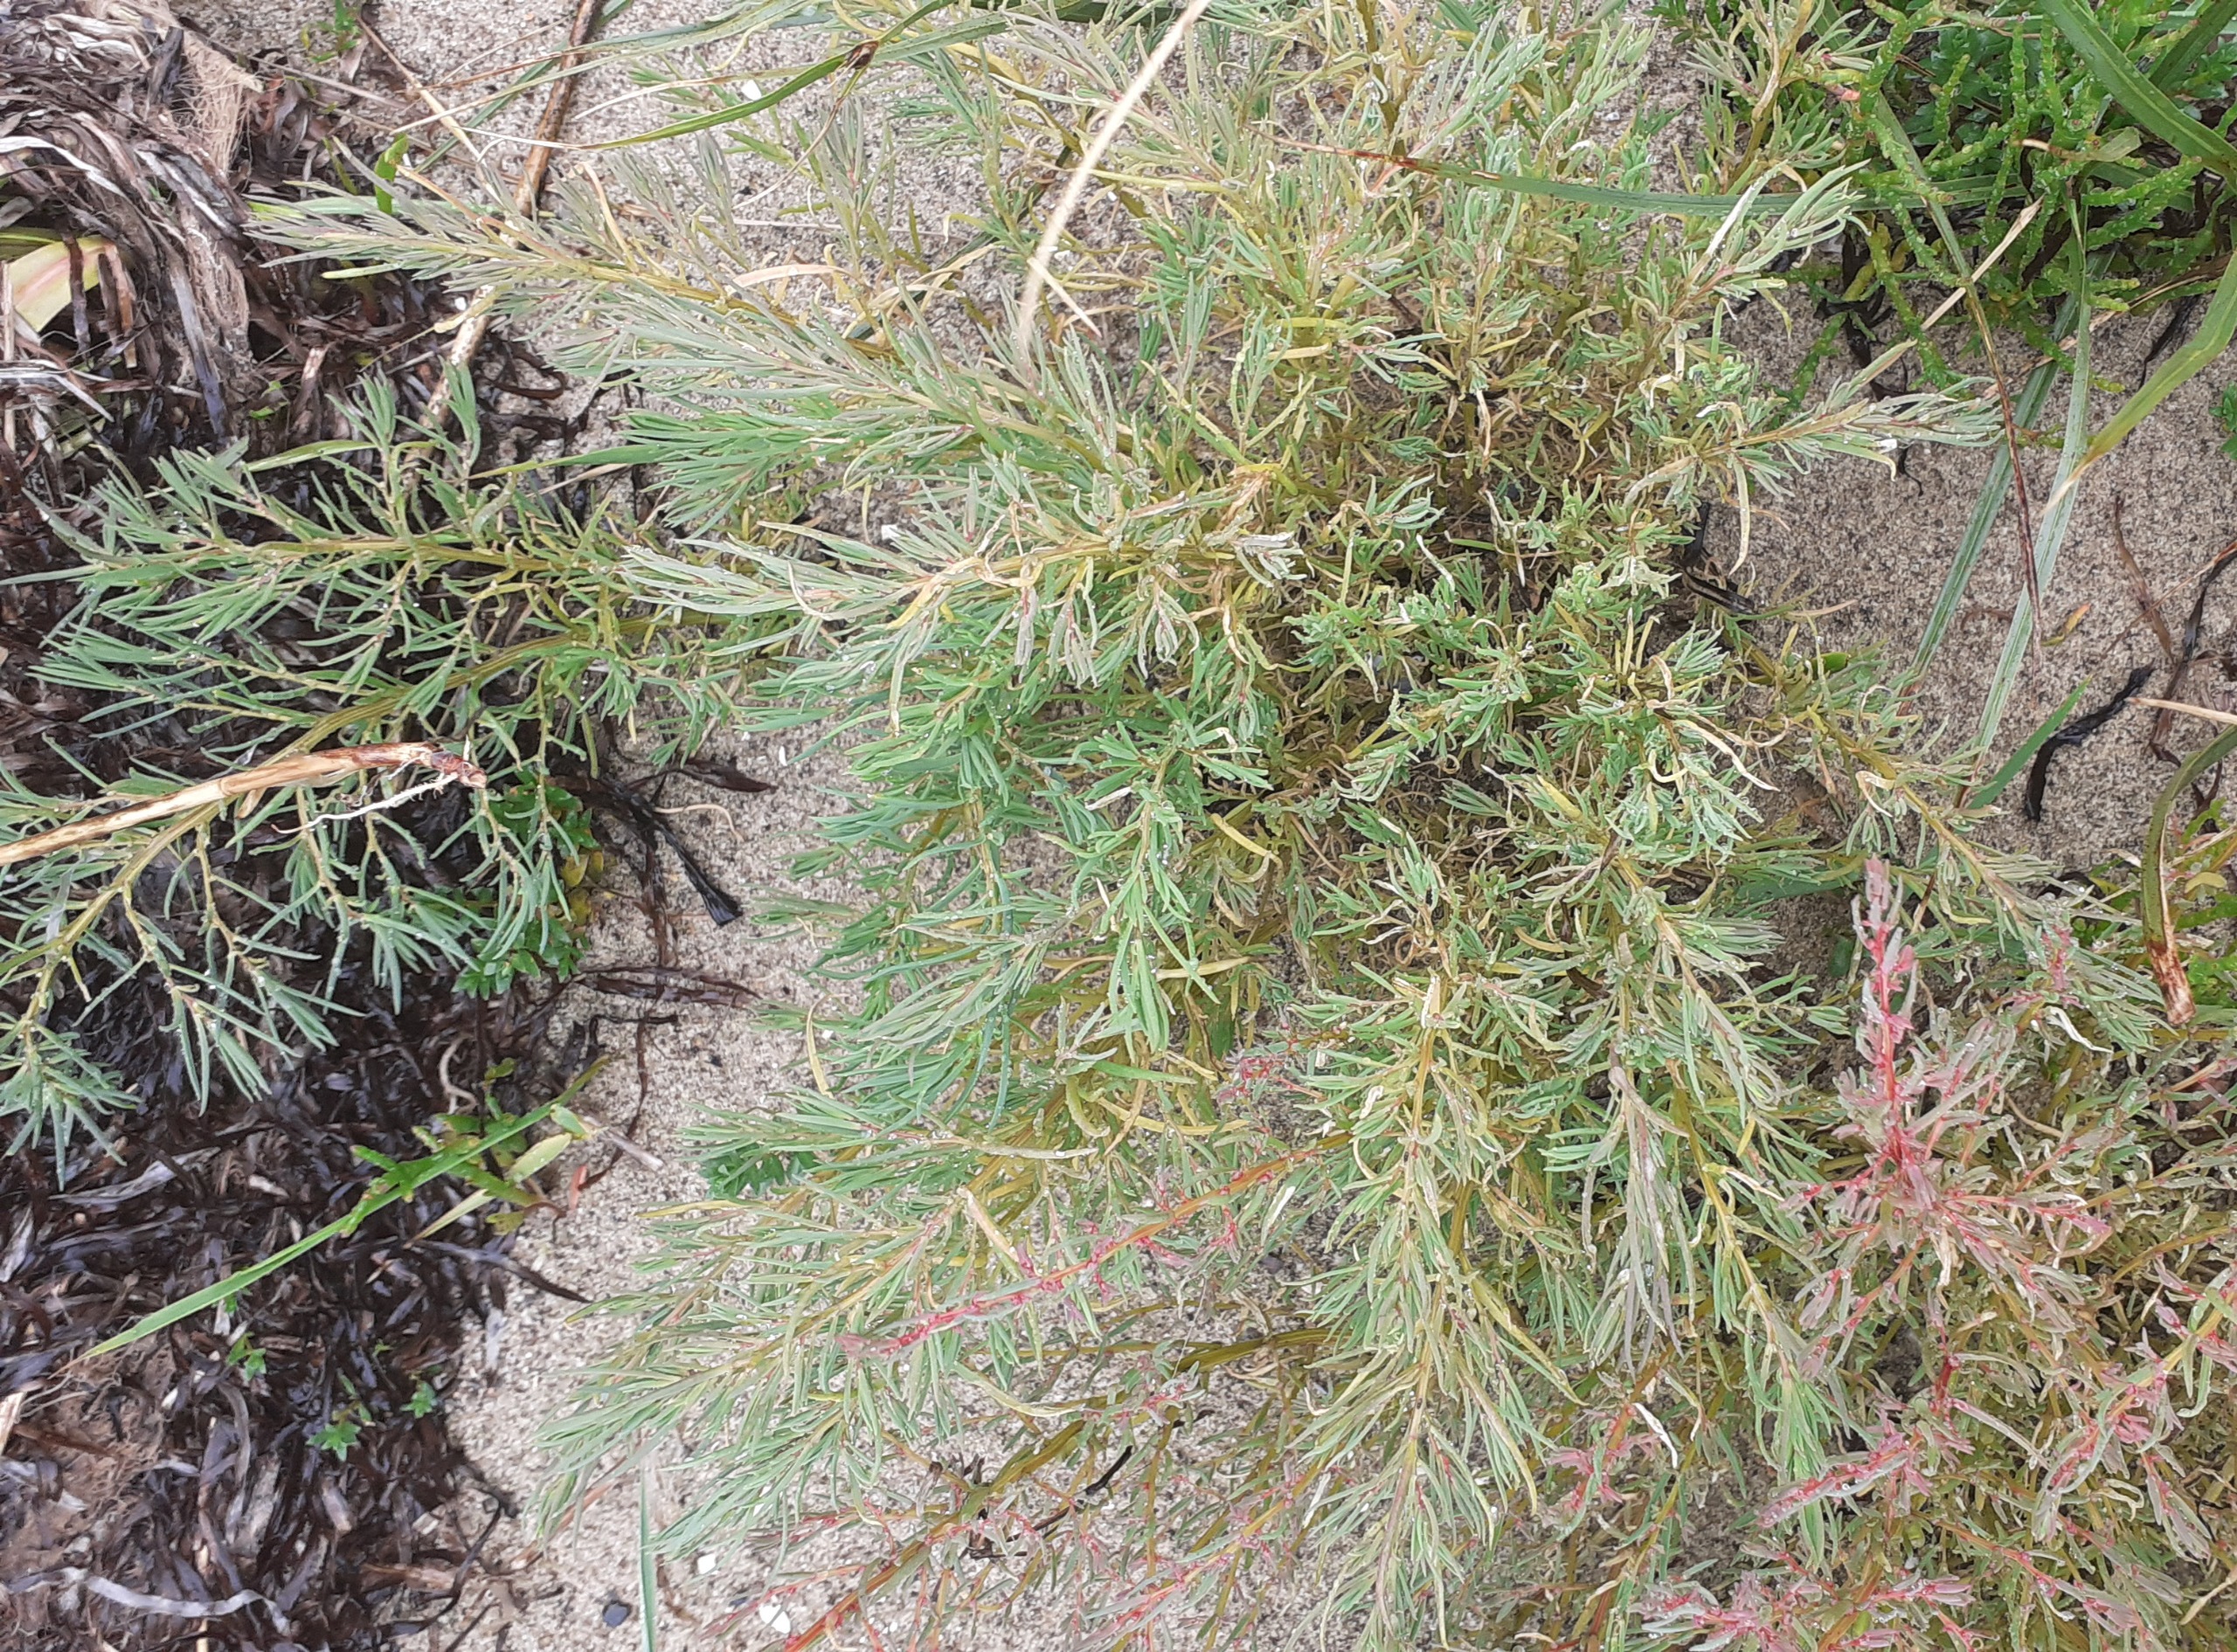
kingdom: Plantae
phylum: Tracheophyta
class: Magnoliopsida
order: Caryophyllales
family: Amaranthaceae
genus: Suaeda
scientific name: Suaeda maritima
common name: Strandgåsefod
